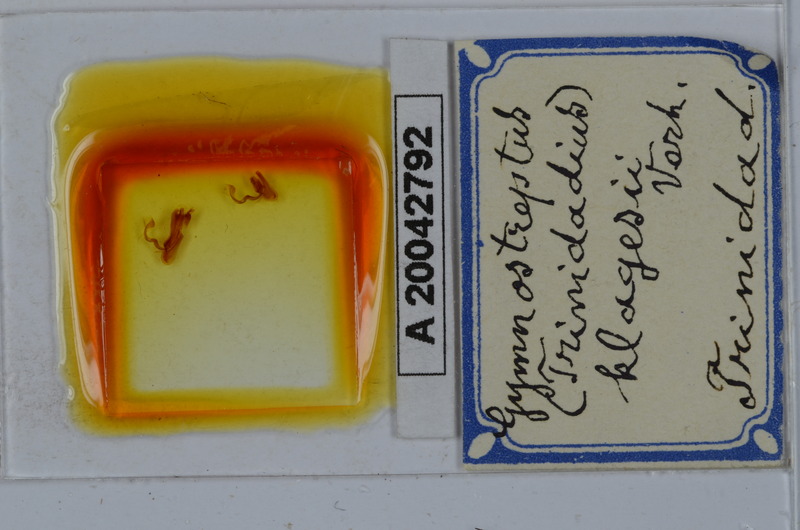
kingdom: Animalia
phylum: Arthropoda
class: Diplopoda
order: Spirostreptida
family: Spirostreptidae
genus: Orthoporus
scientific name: Orthoporus cavicollis
